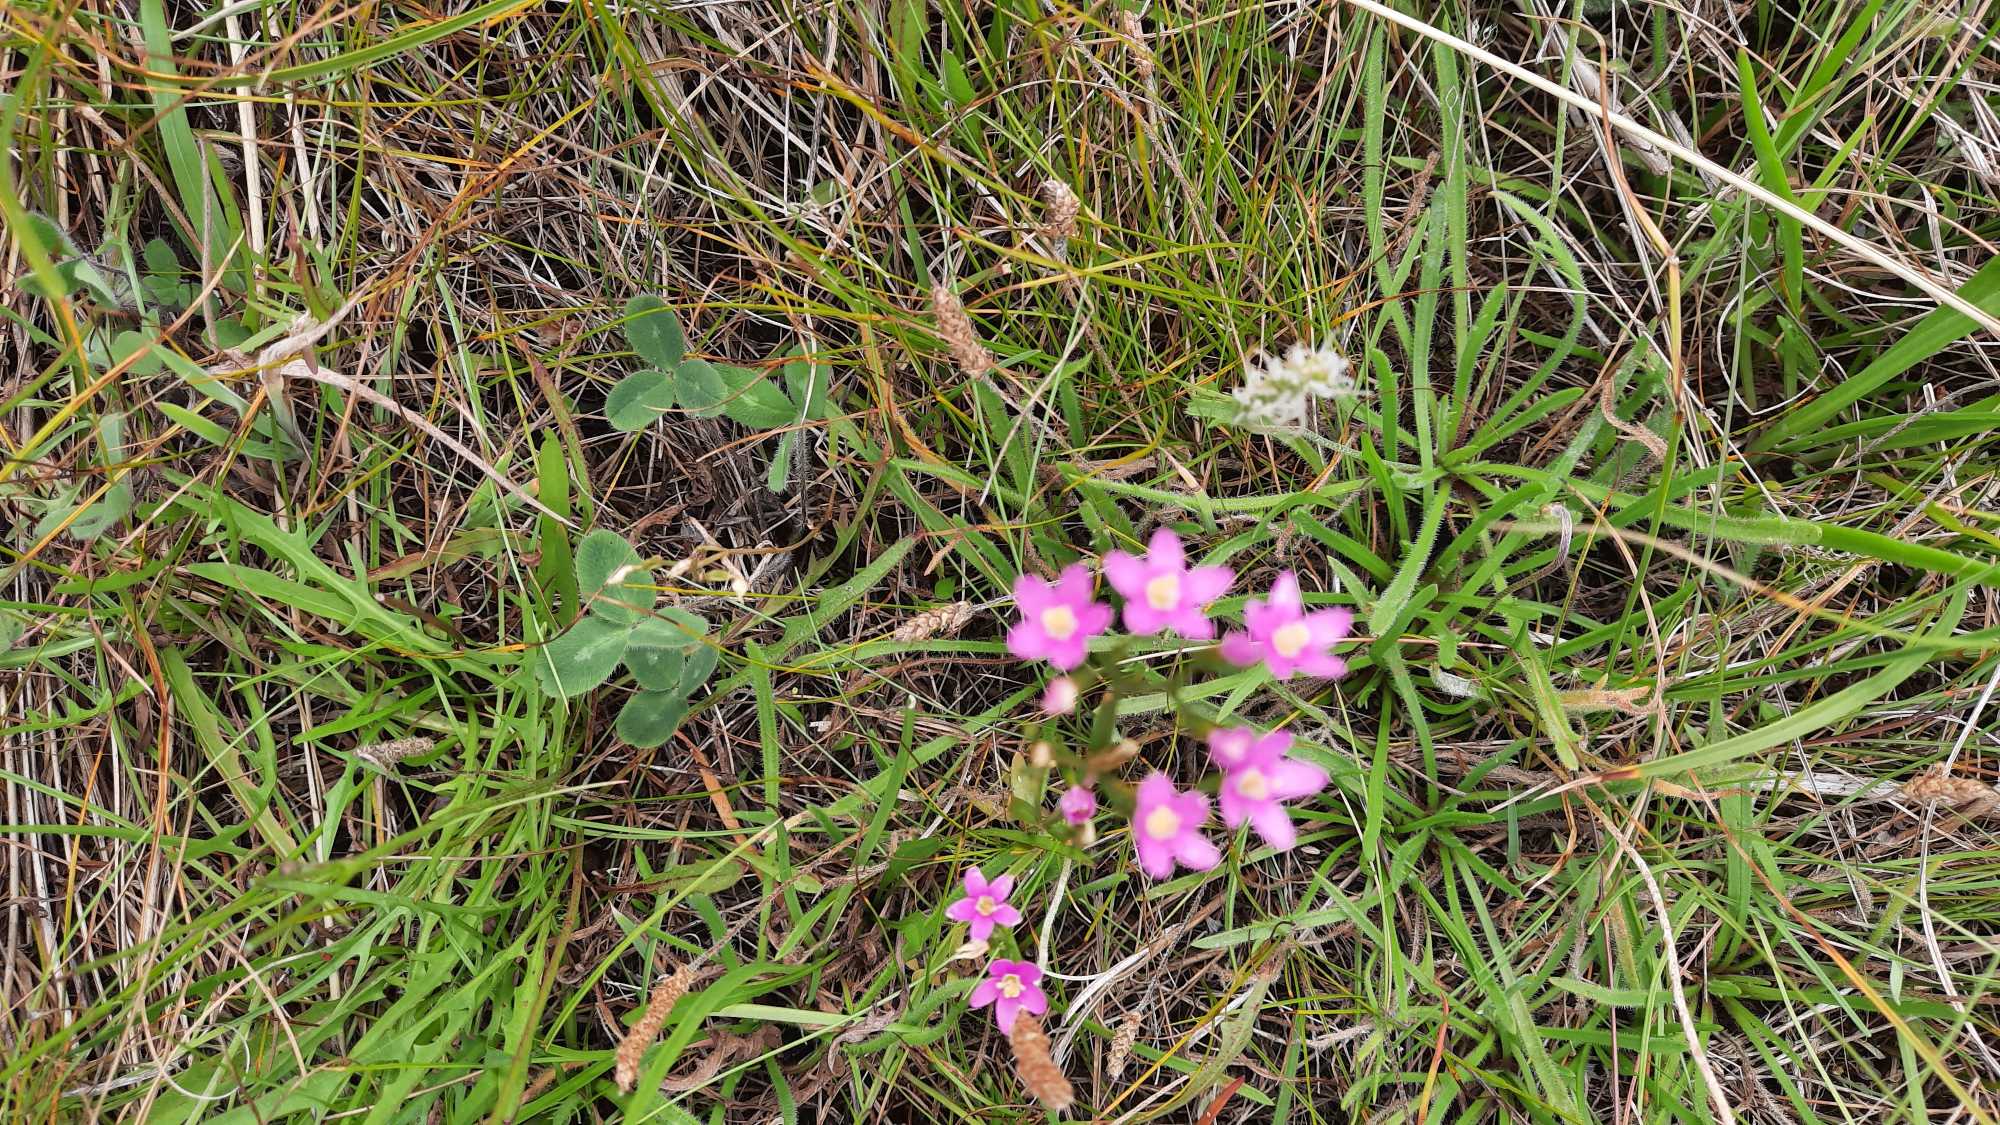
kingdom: Plantae
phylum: Tracheophyta
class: Magnoliopsida
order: Gentianales
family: Gentianaceae
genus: Centaurium
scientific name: Centaurium
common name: Tusindgyldenslægten
